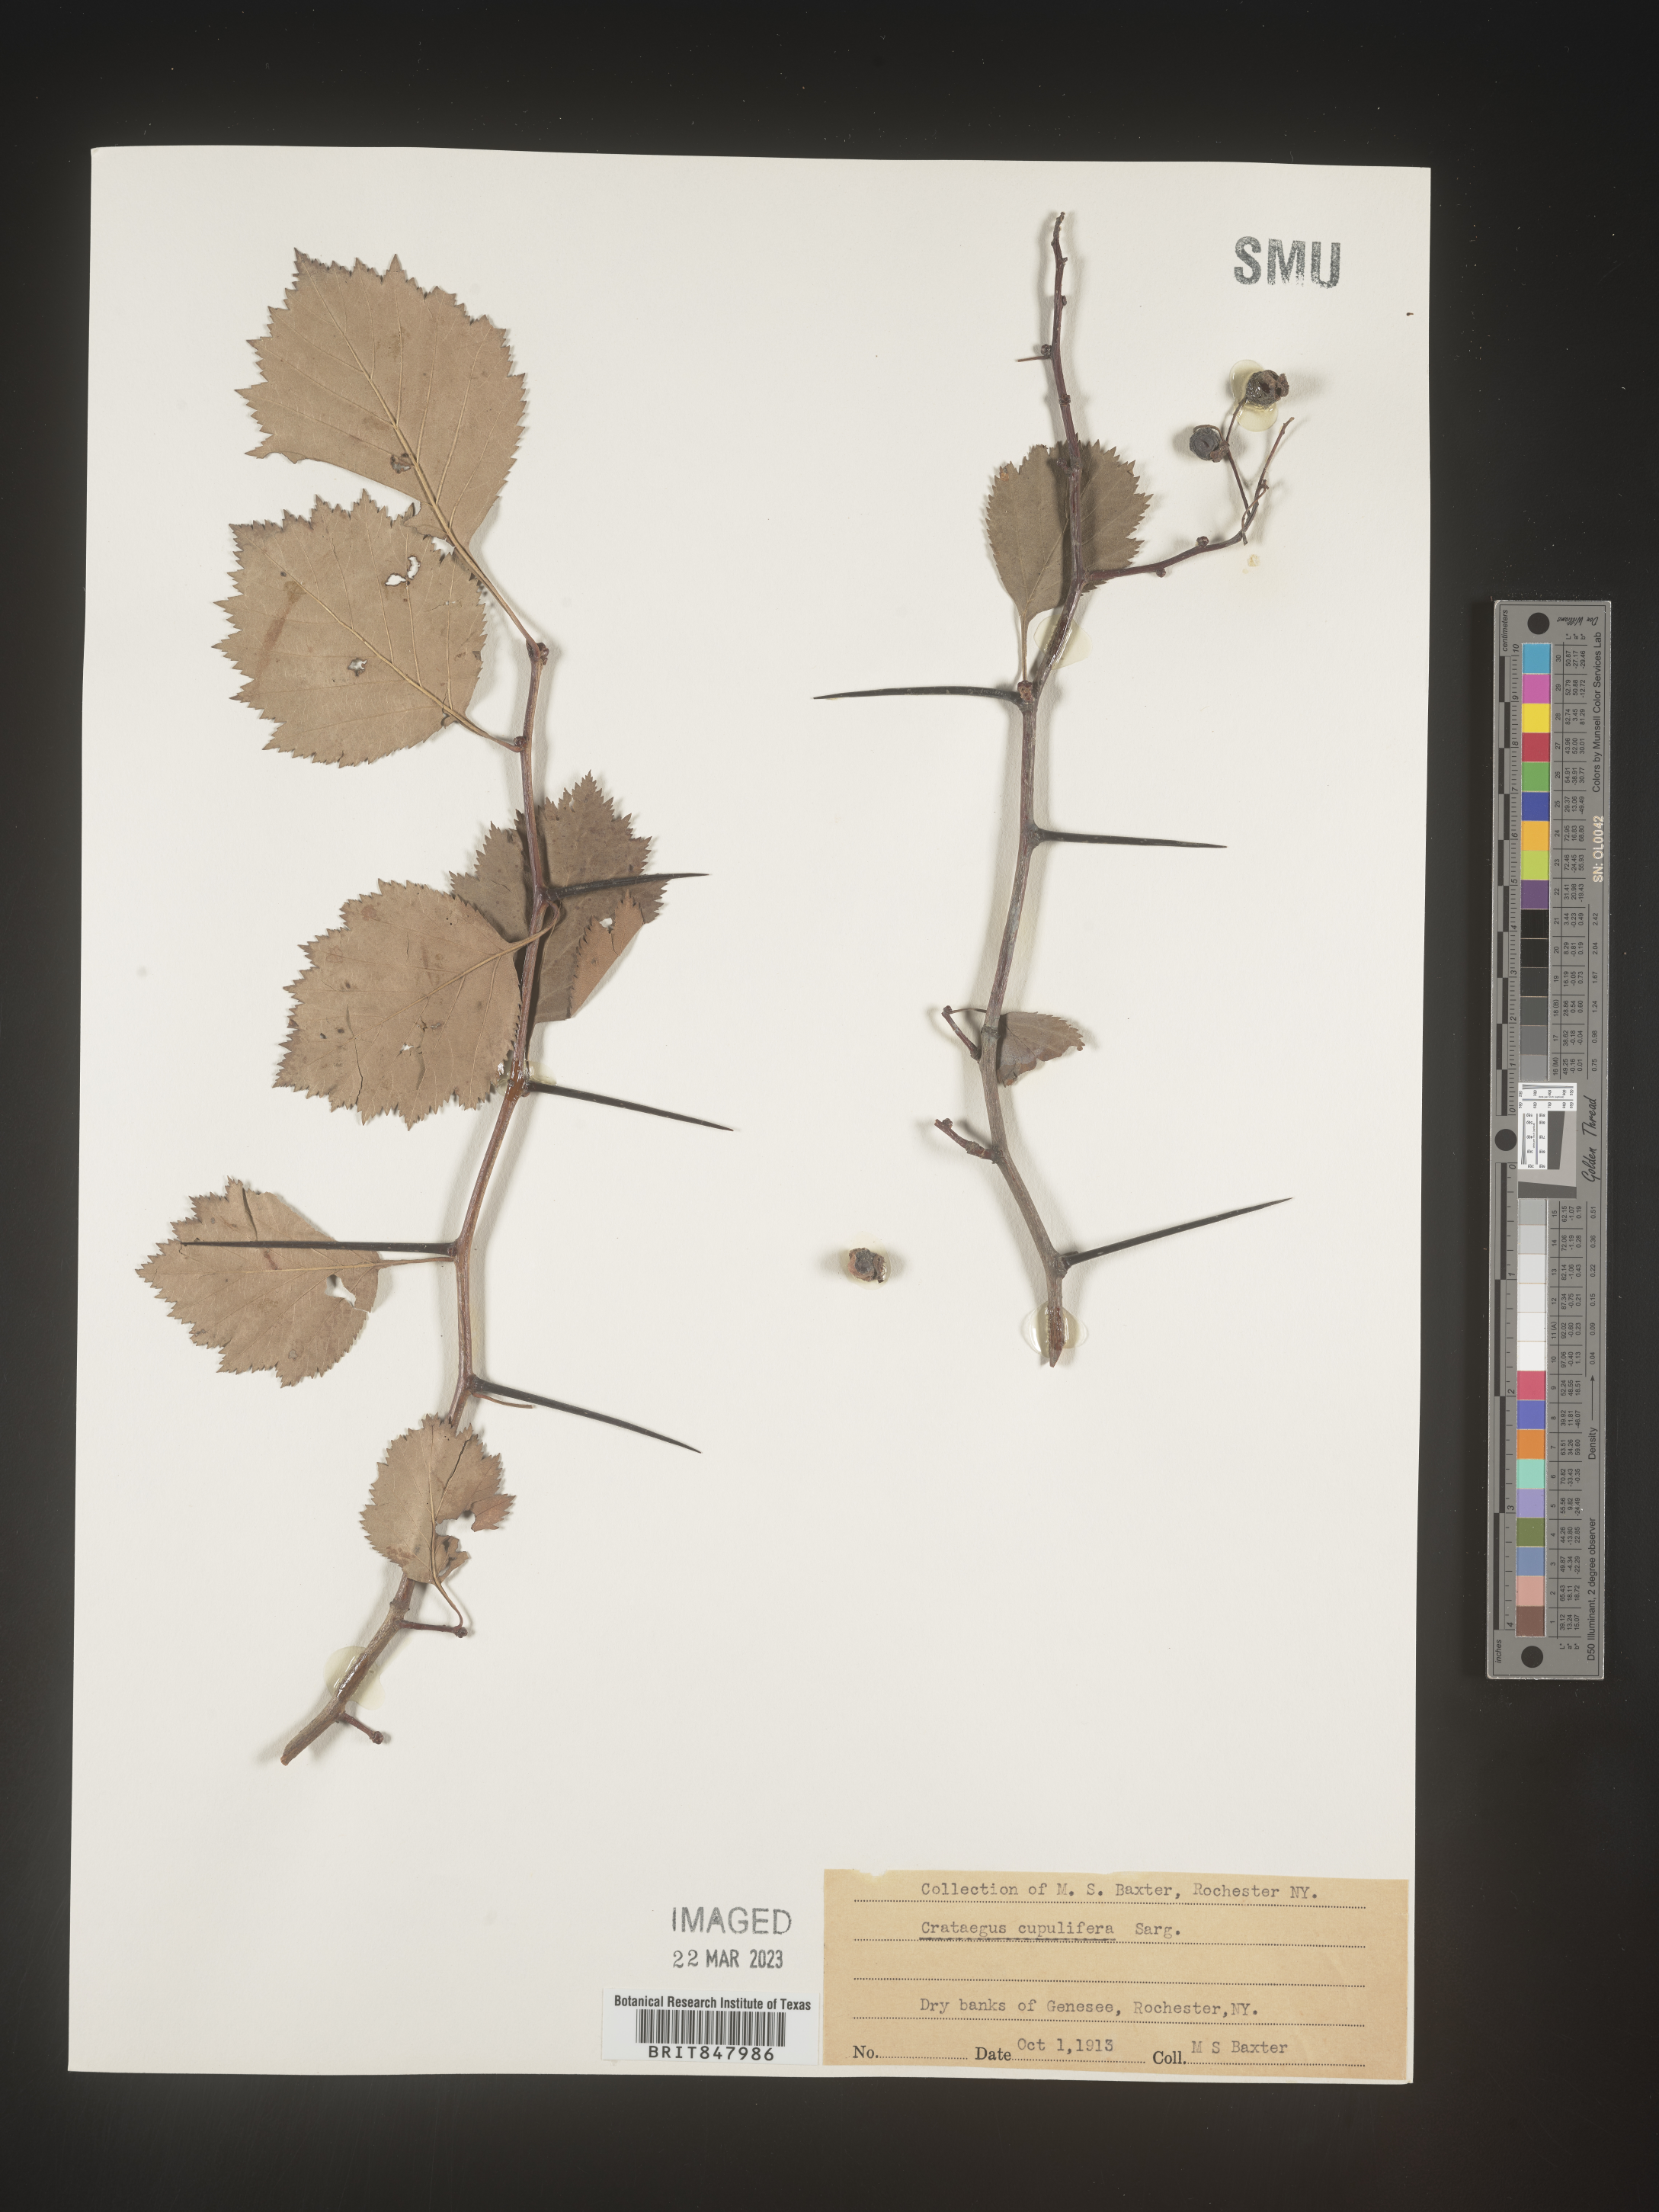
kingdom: Plantae
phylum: Tracheophyta
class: Magnoliopsida
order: Rosales
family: Rosaceae
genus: Crataegus
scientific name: Crataegus
